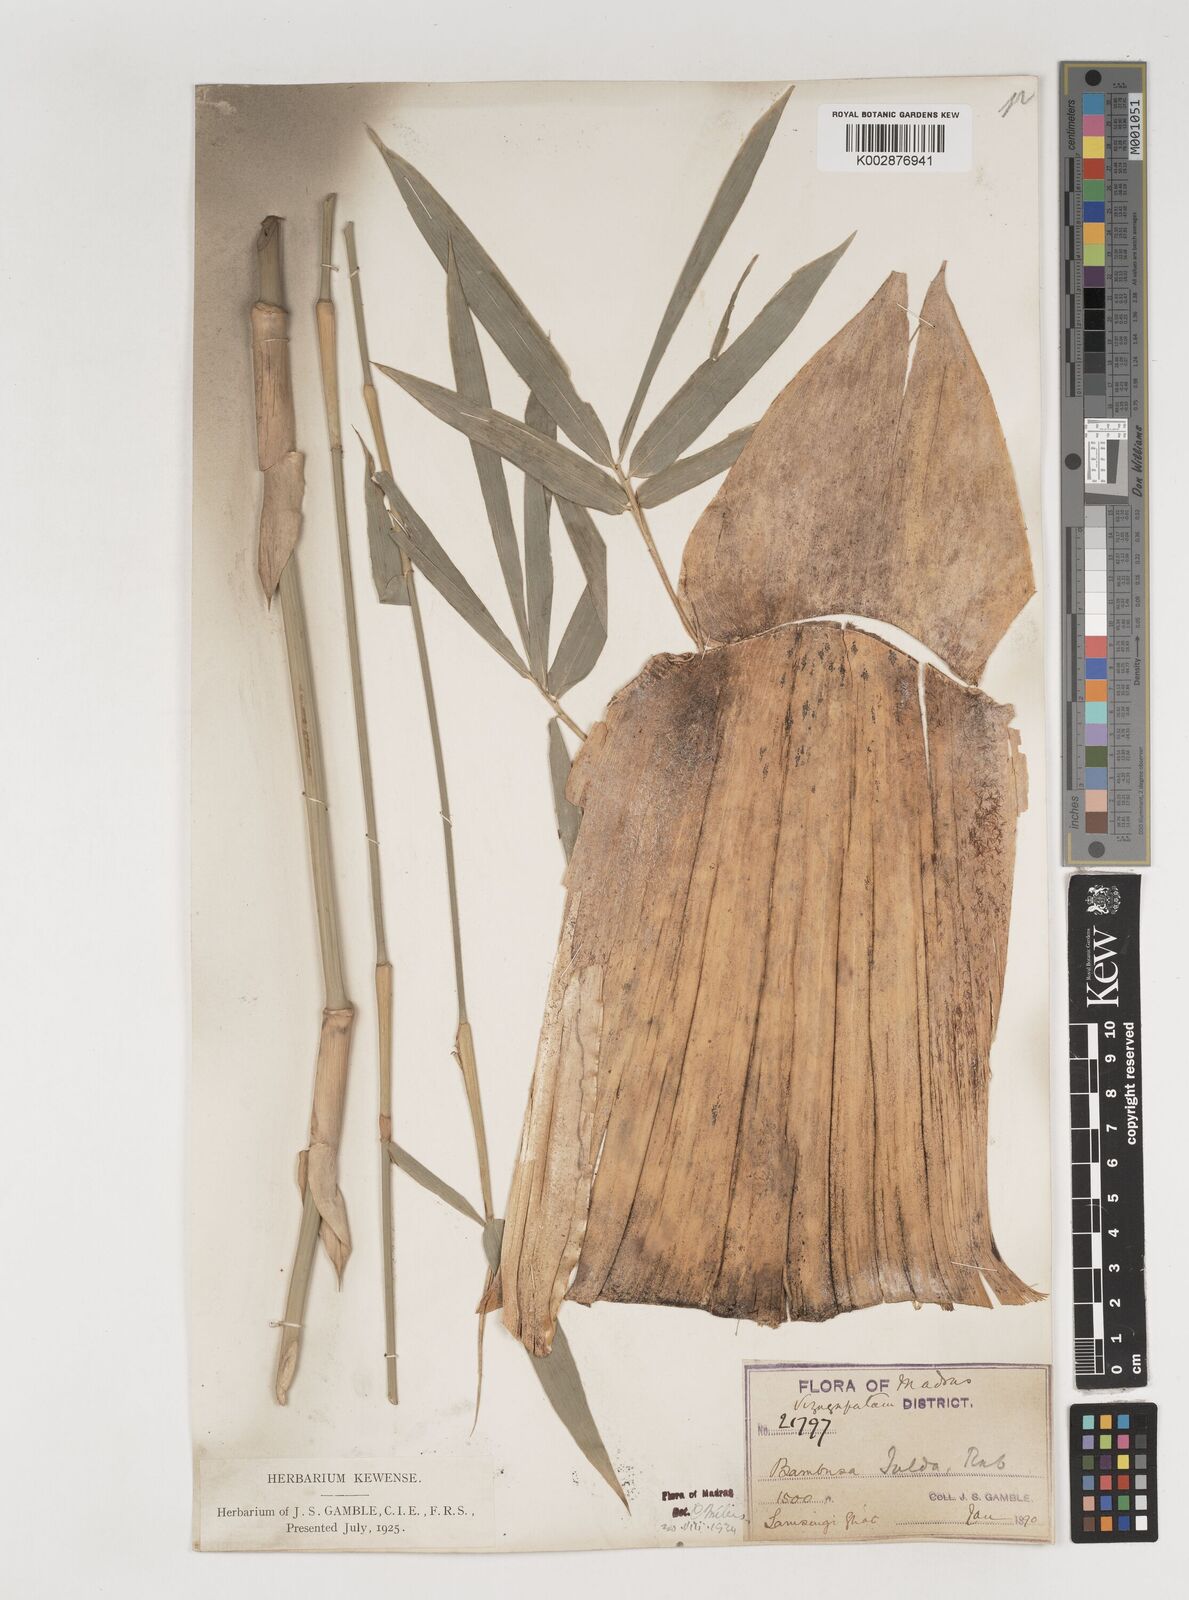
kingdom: Plantae
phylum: Tracheophyta
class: Liliopsida
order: Poales
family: Poaceae
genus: Bambusa
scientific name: Bambusa tulda
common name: Bengal bamboo
